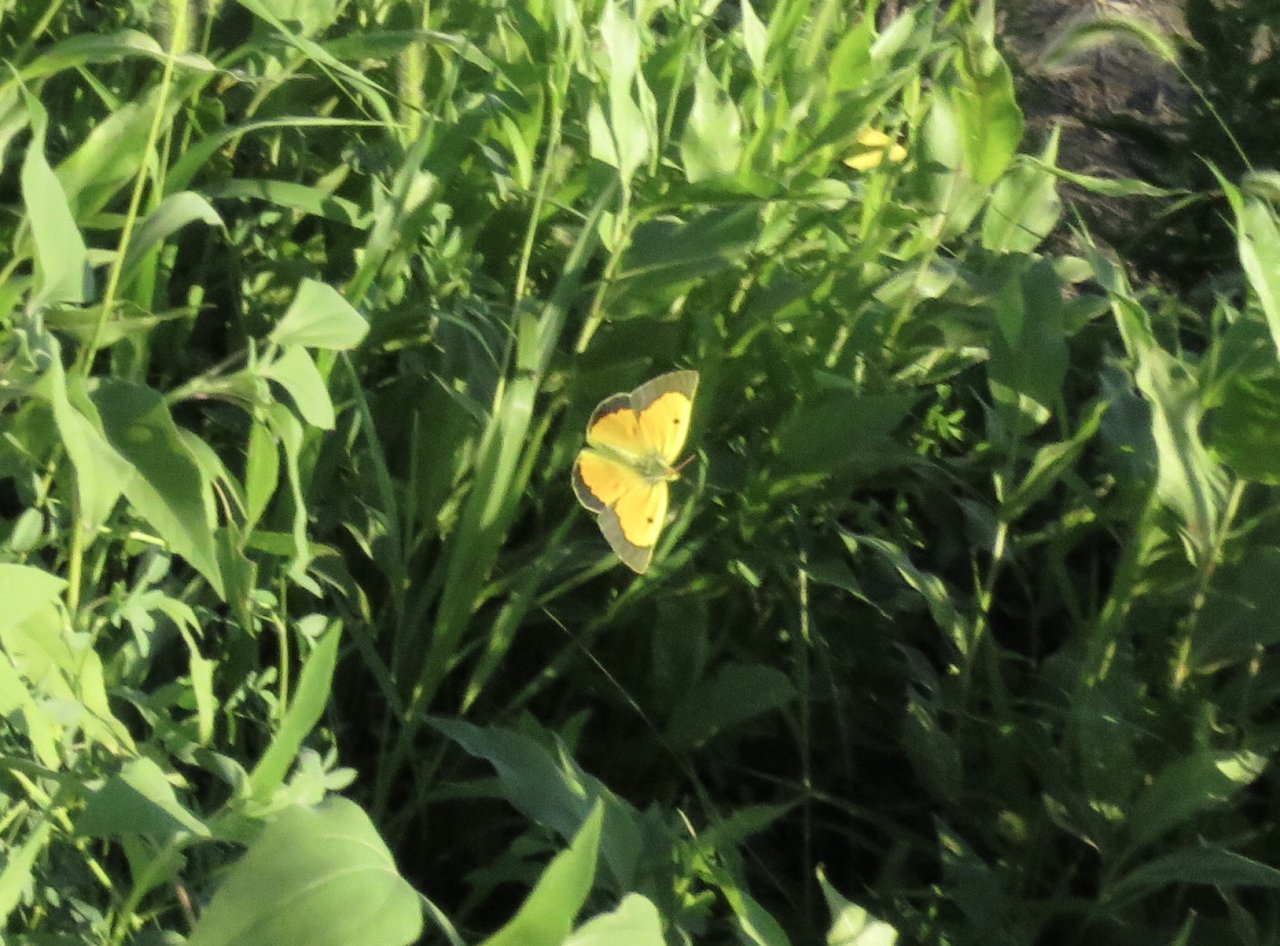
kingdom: Animalia
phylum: Arthropoda
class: Insecta
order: Lepidoptera
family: Pieridae
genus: Colias
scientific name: Colias eurytheme
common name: Orange Sulphur
